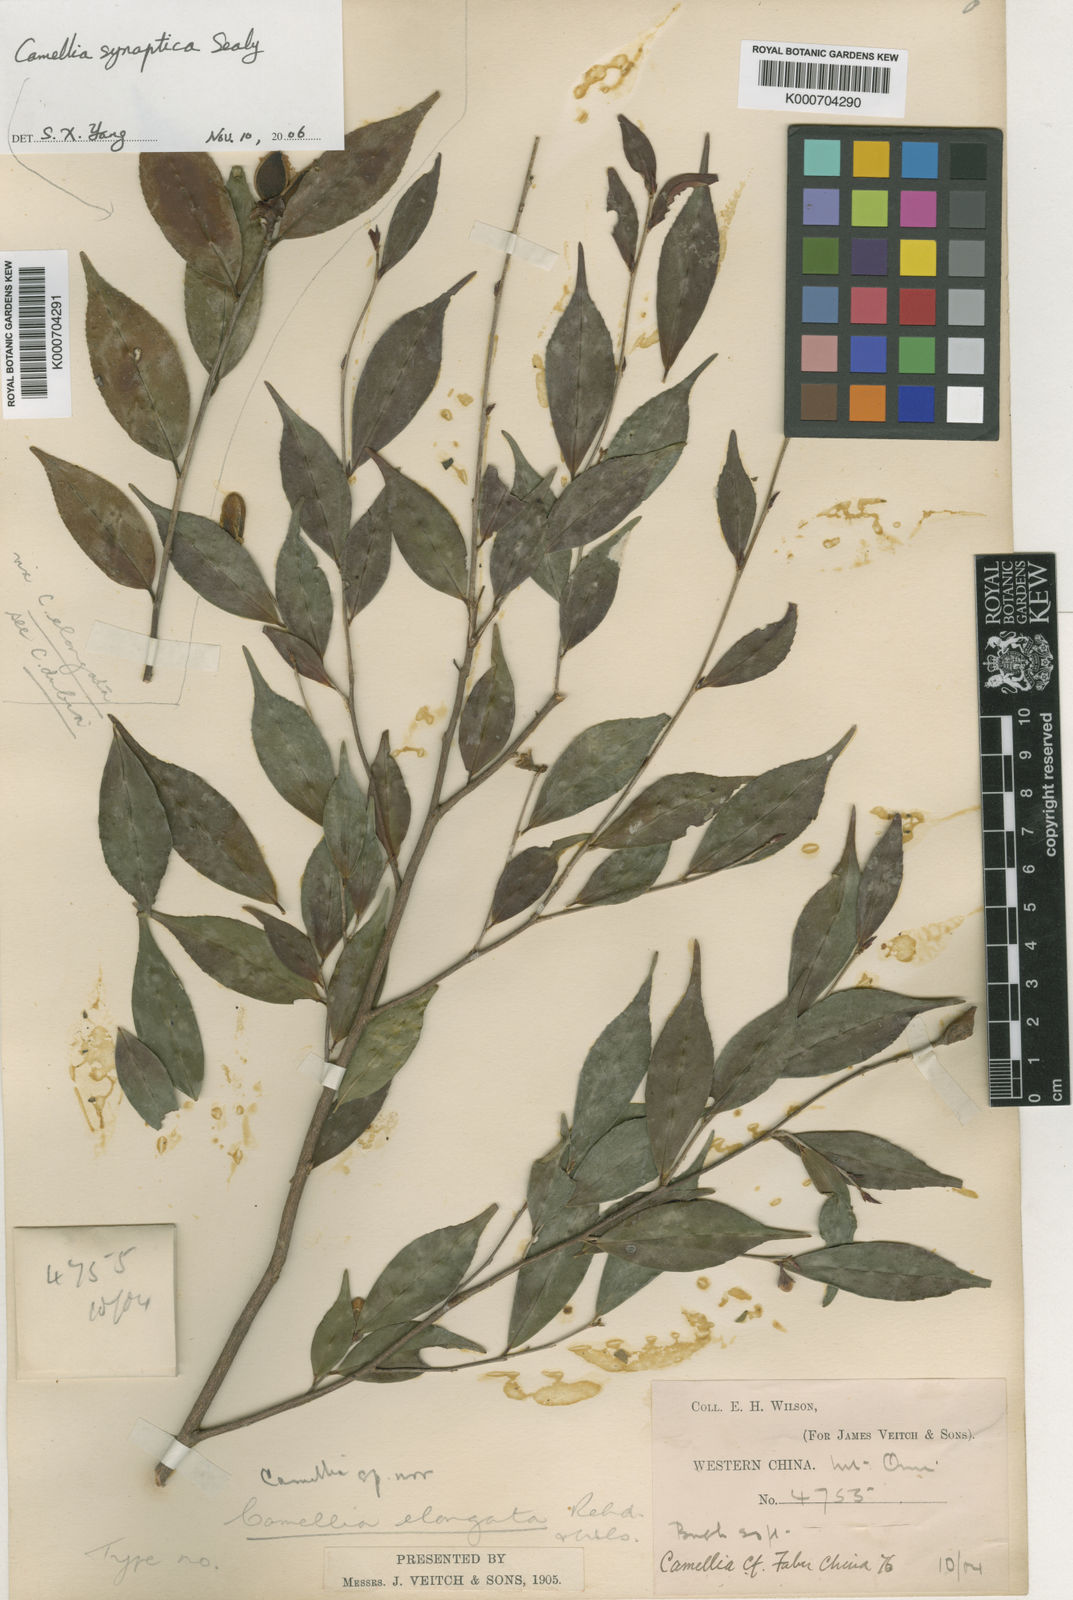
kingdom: Plantae
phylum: Tracheophyta
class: Magnoliopsida
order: Ericales
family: Theaceae
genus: Camellia
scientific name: Camellia elongata
